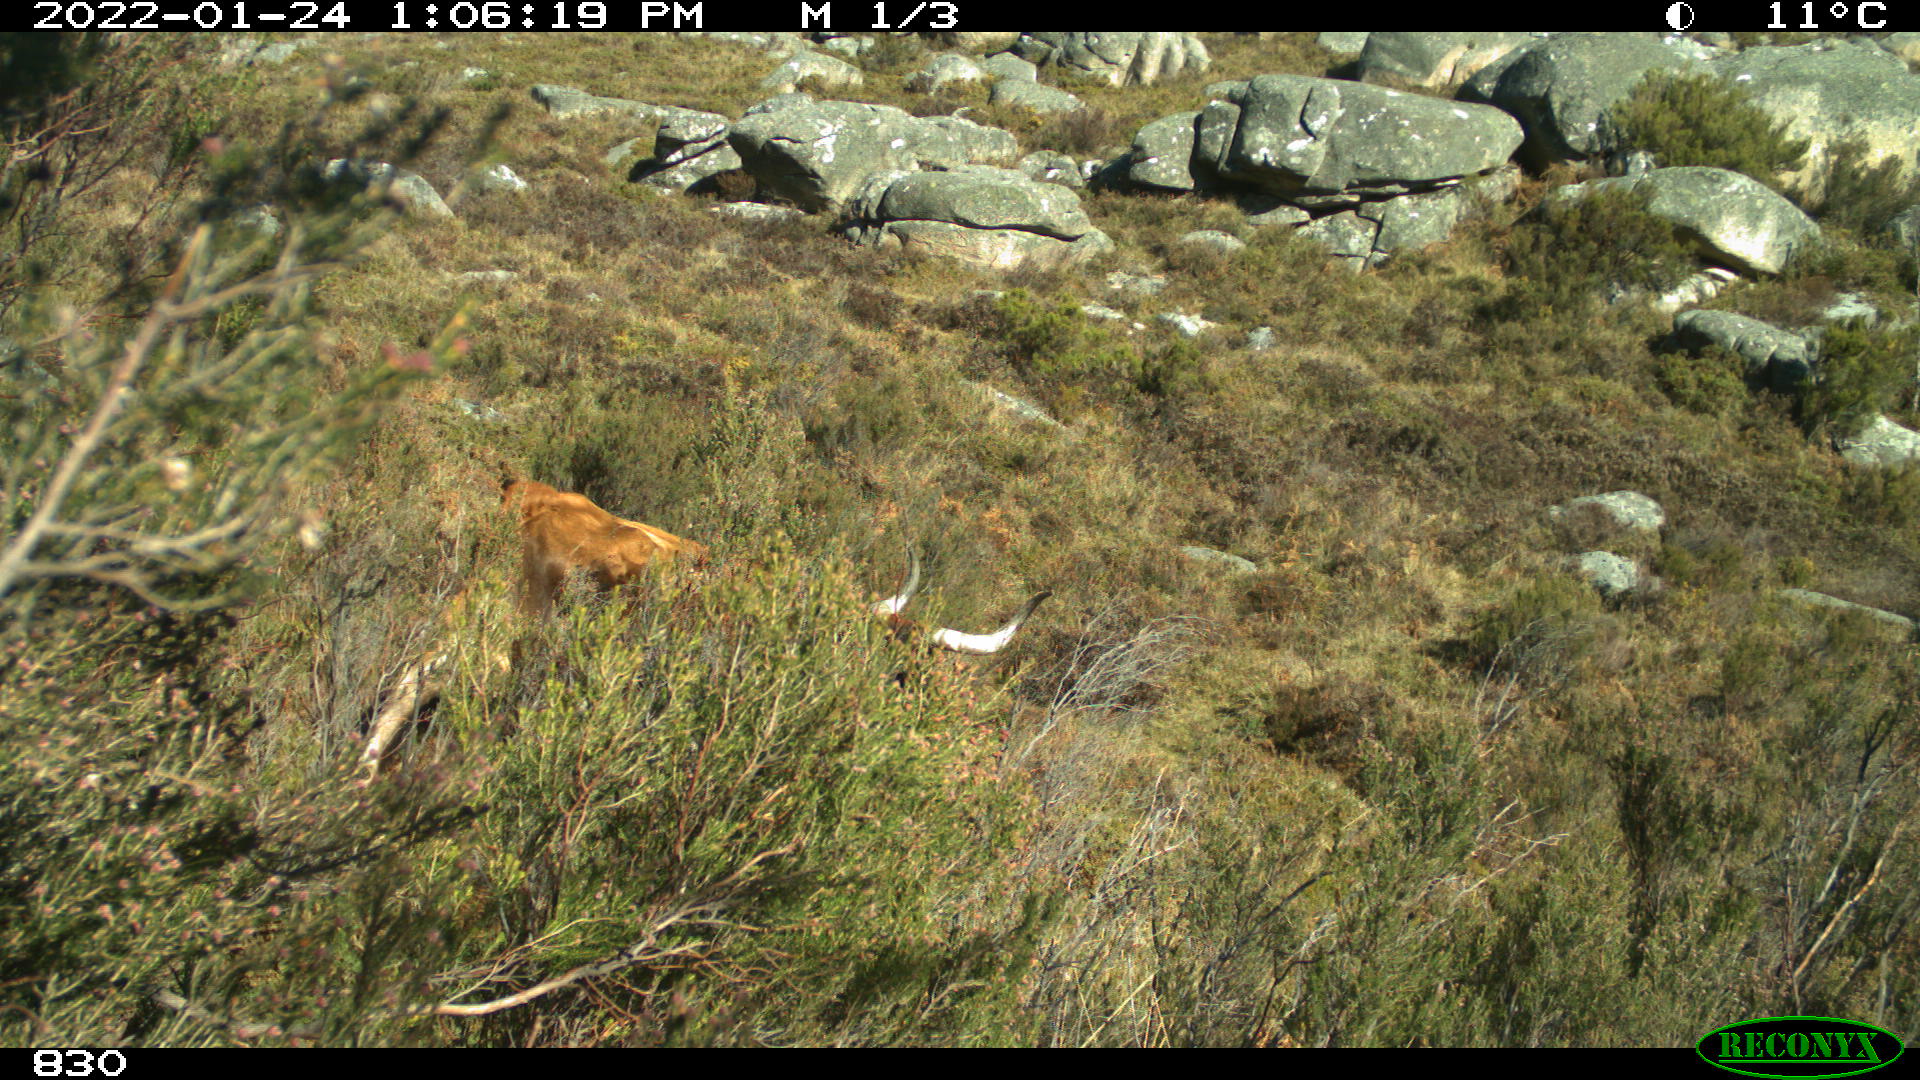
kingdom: Animalia
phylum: Chordata
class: Mammalia
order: Artiodactyla
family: Bovidae
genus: Bos
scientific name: Bos taurus
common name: Domesticated cattle
